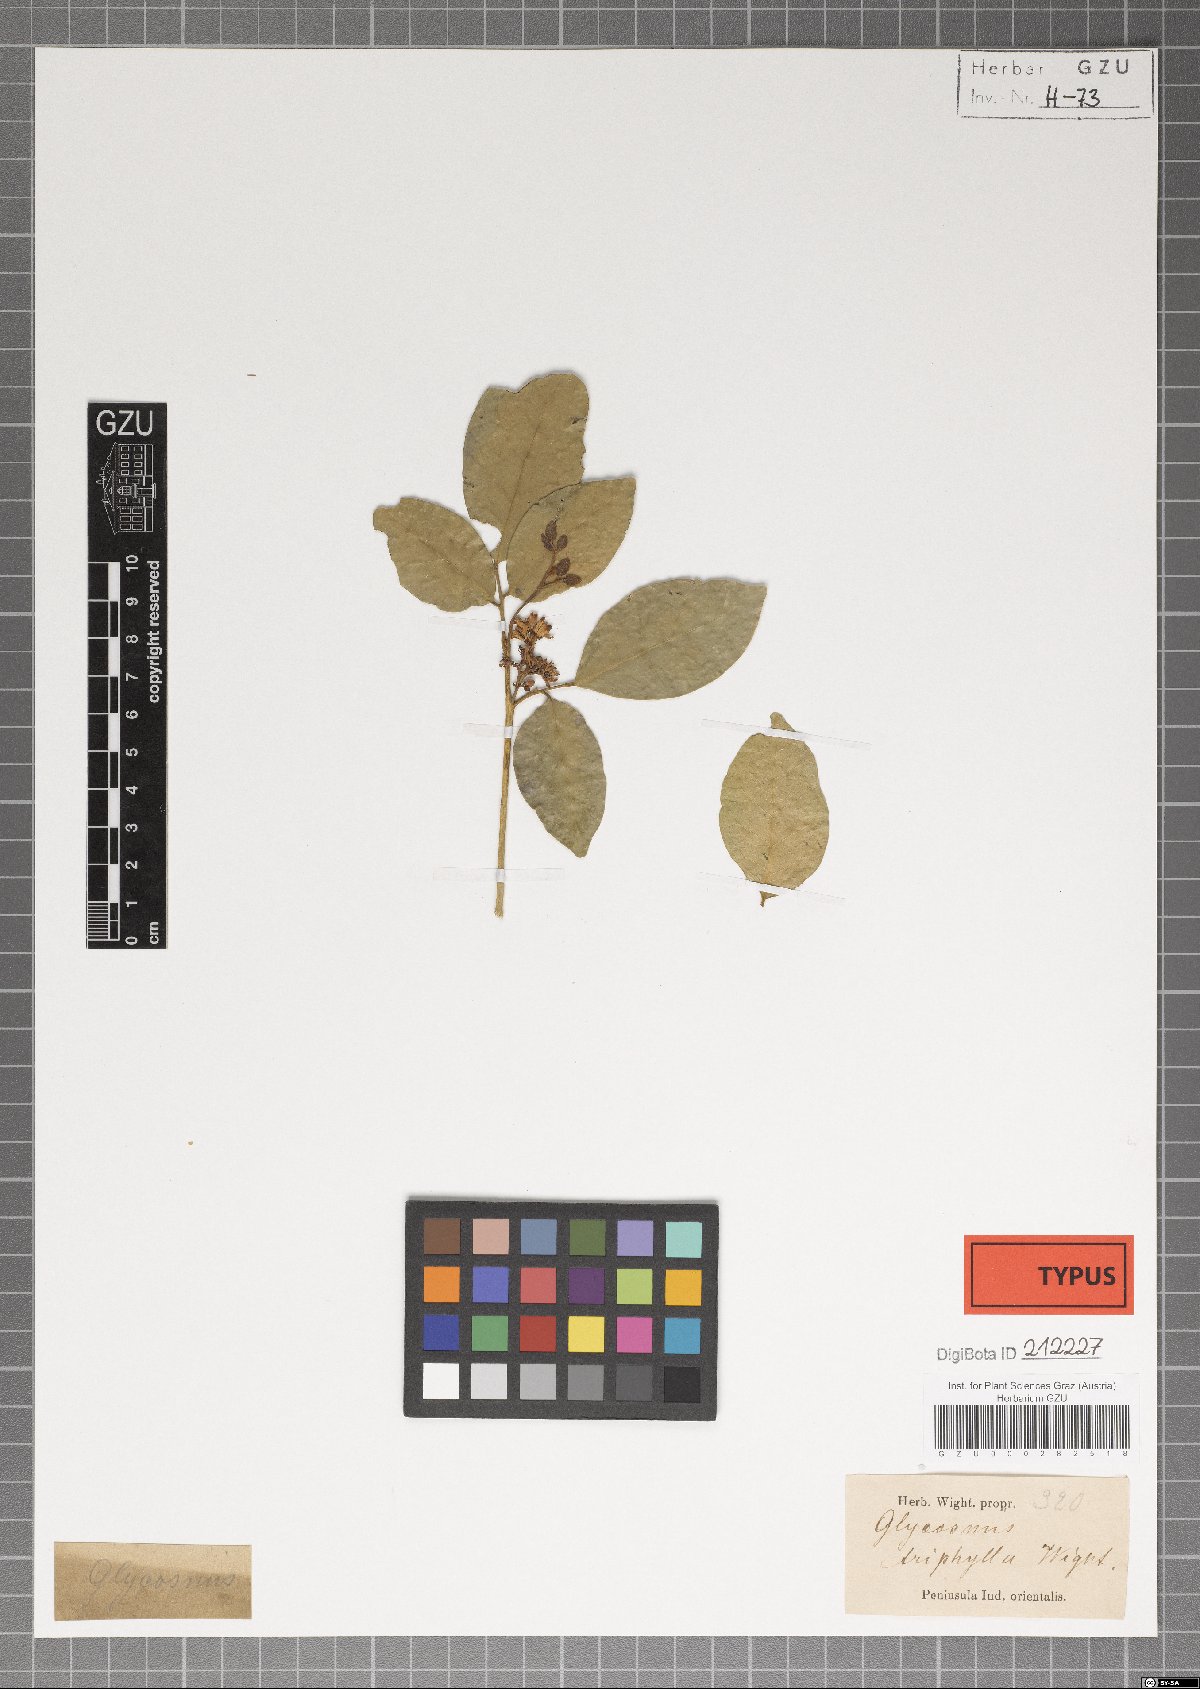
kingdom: Plantae
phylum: Tracheophyta
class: Magnoliopsida
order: Sapindales
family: Rutaceae
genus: Glycosmis
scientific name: Glycosmis mauritiana
